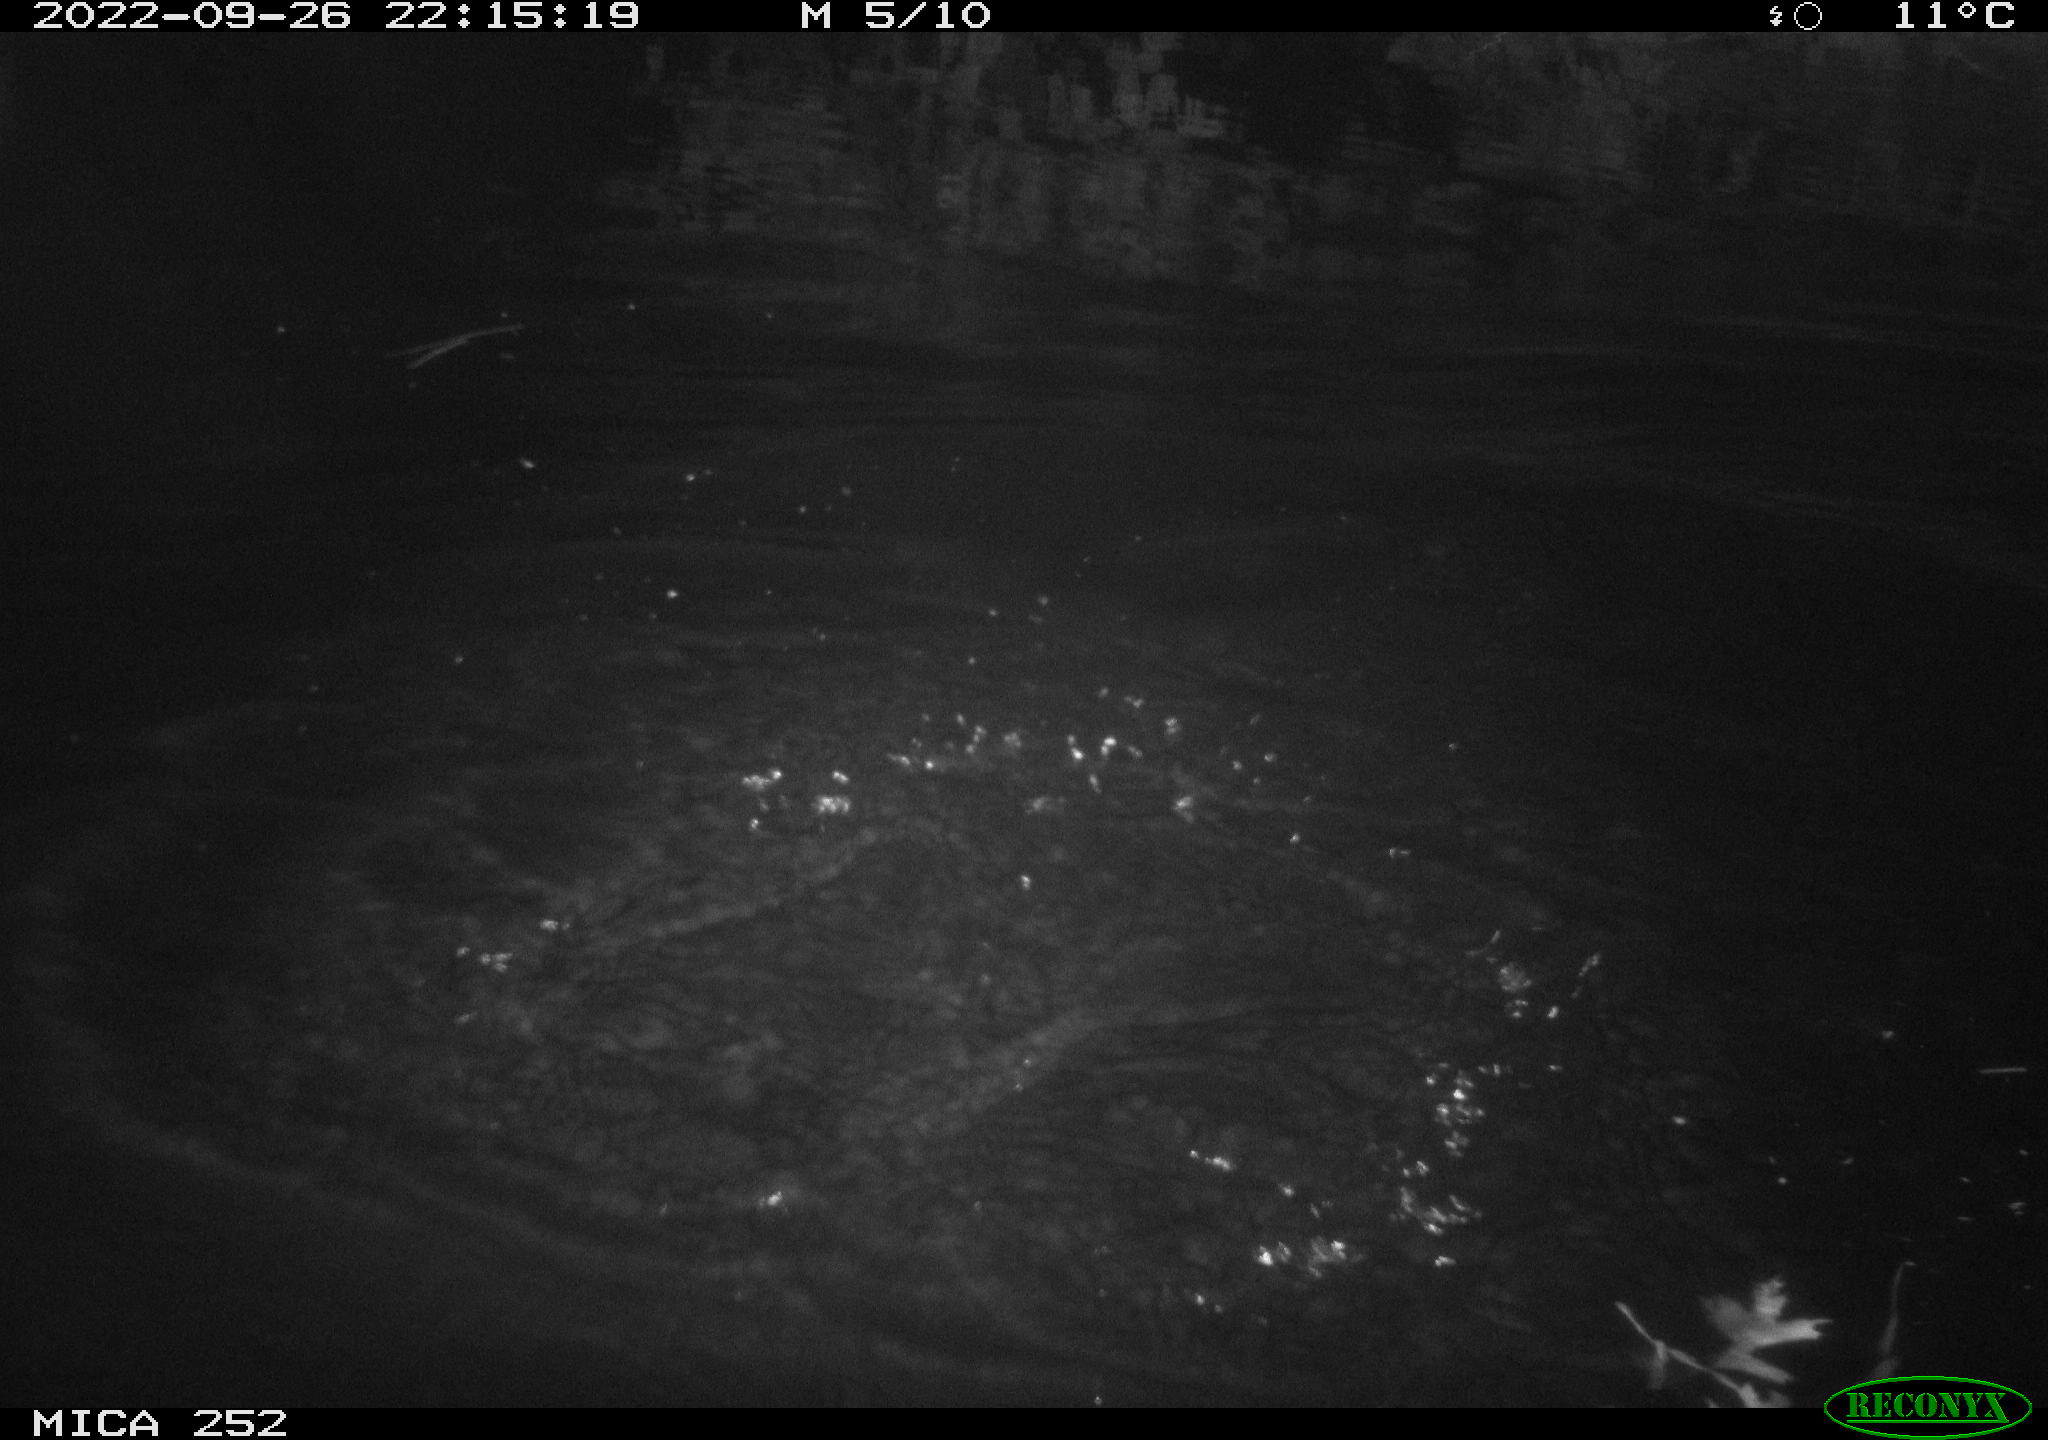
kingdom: Animalia
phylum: Chordata
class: Mammalia
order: Rodentia
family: Castoridae
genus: Castor
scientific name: Castor fiber
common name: Eurasian beaver
